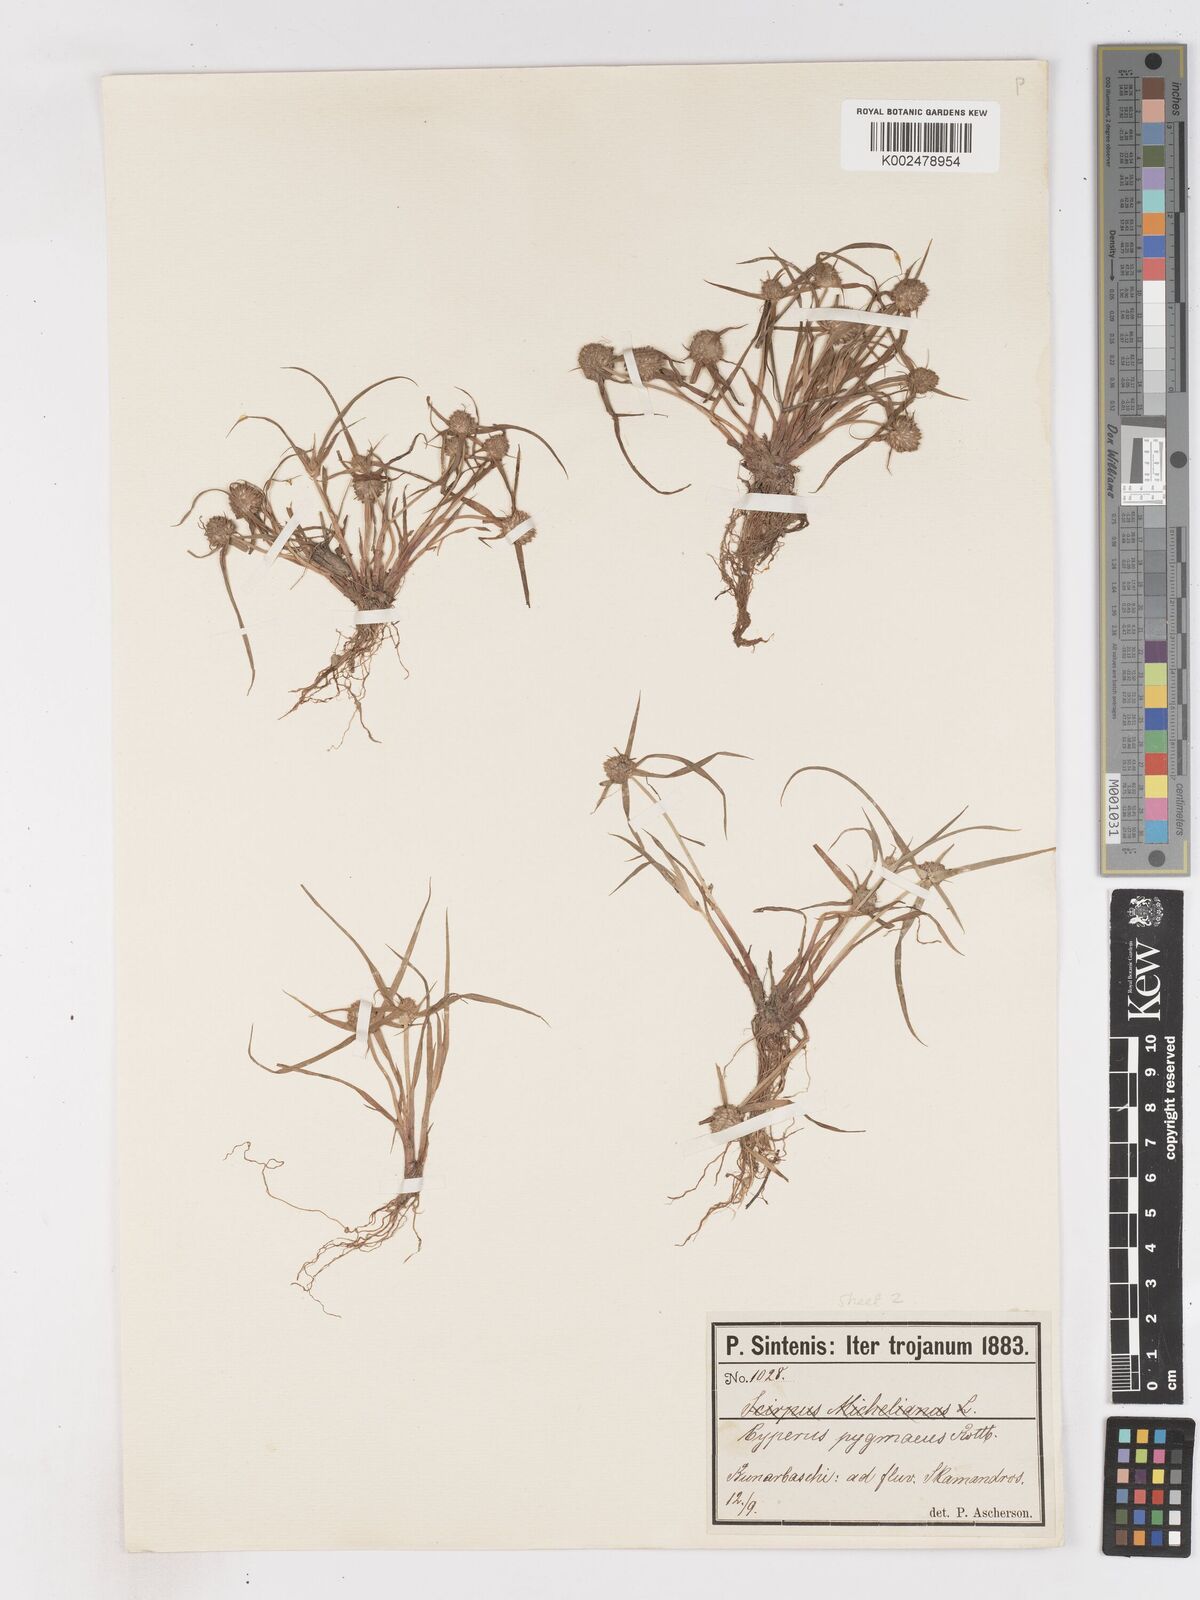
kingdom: Plantae
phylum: Tracheophyta
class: Liliopsida
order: Poales
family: Cyperaceae
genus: Cyperus
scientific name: Cyperus michelianus
